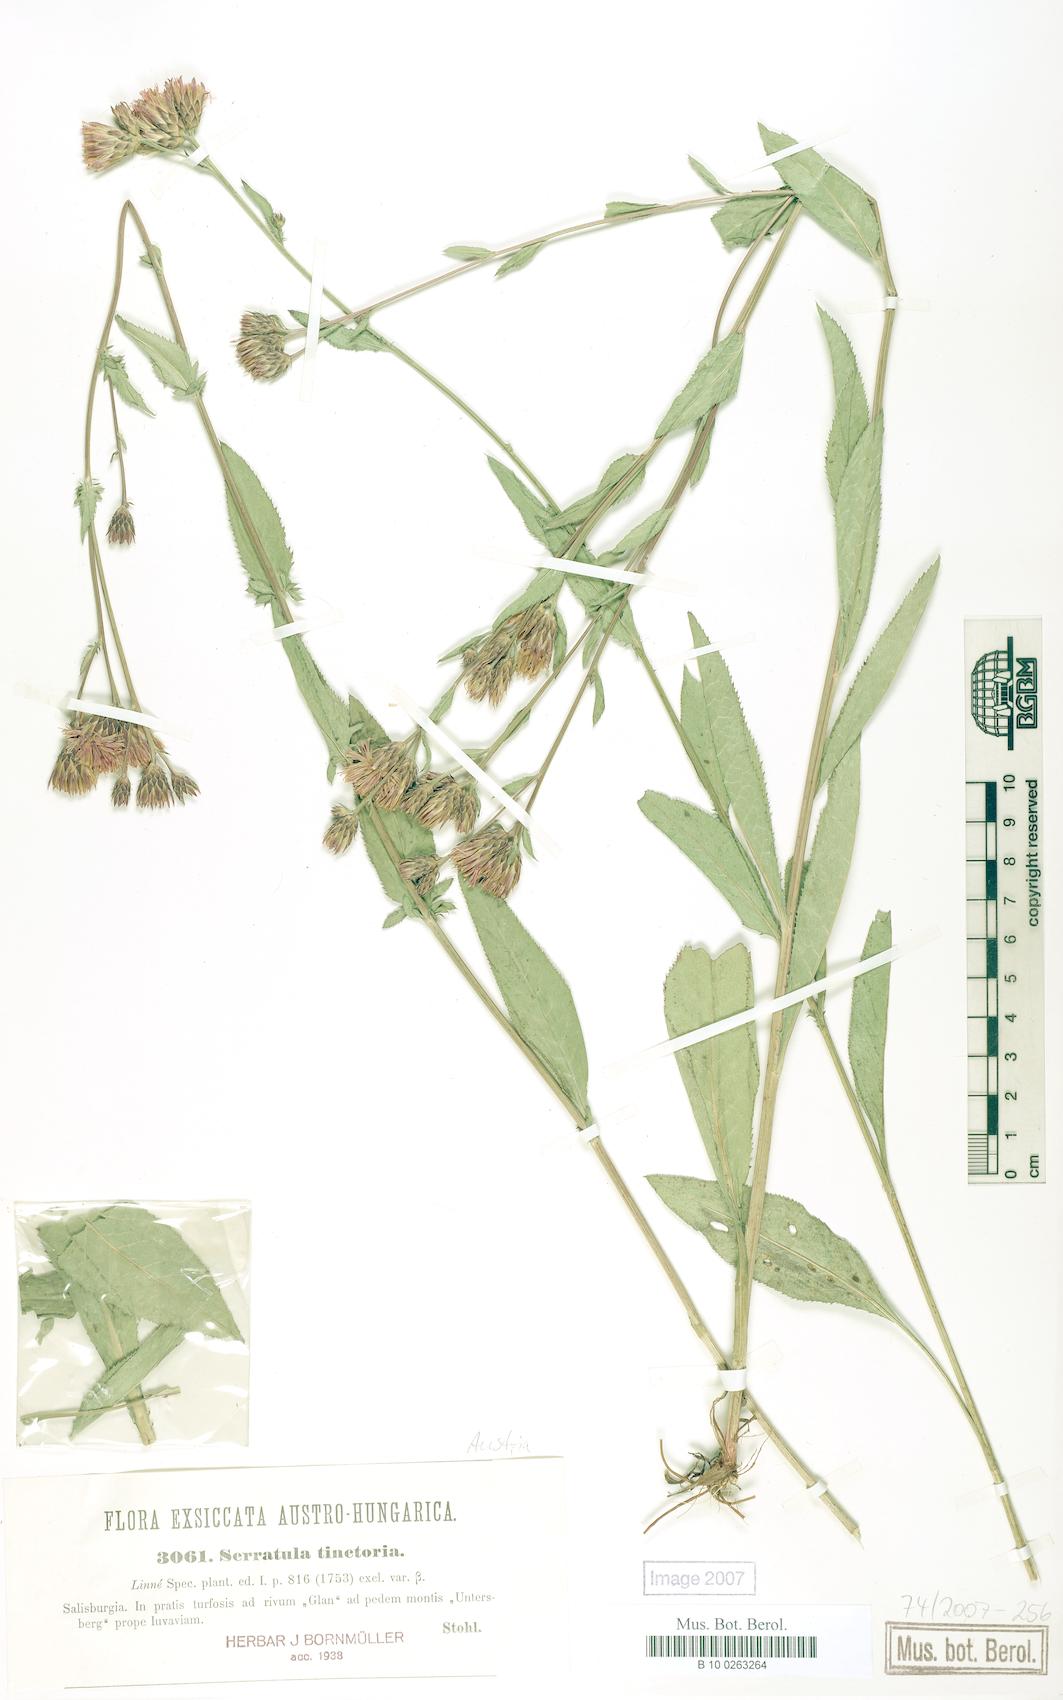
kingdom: Plantae
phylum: Tracheophyta
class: Magnoliopsida
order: Asterales
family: Asteraceae
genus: Serratula
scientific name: Serratula tinctoria
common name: Saw-wort
